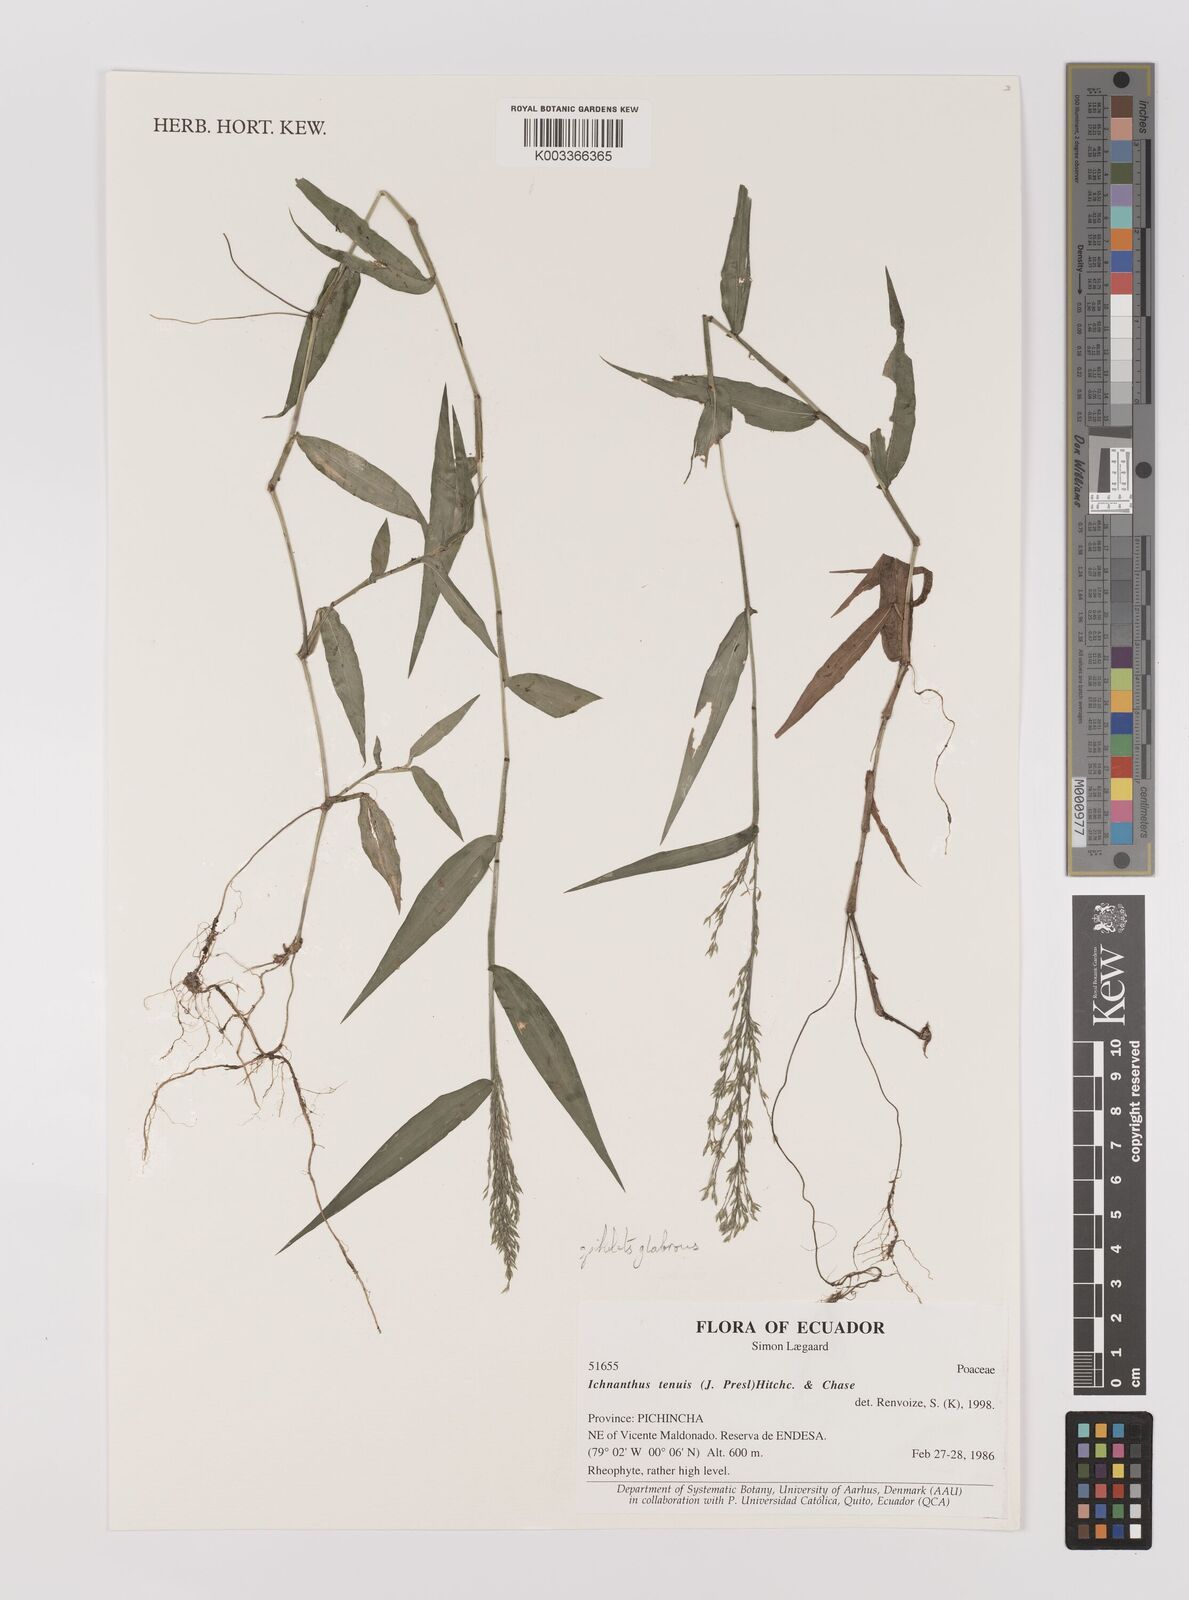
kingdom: Plantae
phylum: Tracheophyta
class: Liliopsida
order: Poales
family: Poaceae
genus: Ichnanthus
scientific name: Ichnanthus tenuis
